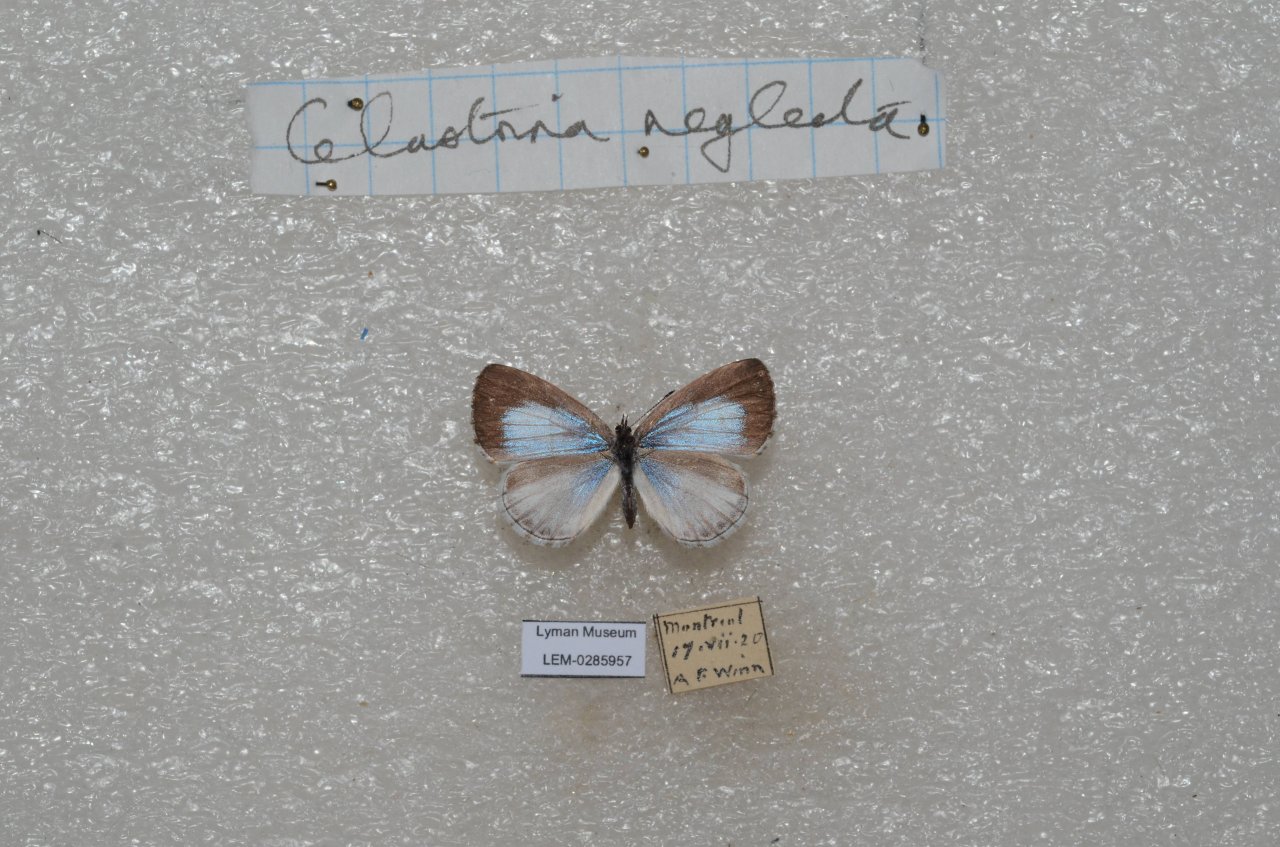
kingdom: Animalia
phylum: Arthropoda
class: Insecta
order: Lepidoptera
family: Lycaenidae
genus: Celastrina
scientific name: Celastrina lucia
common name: Northern Spring Azure
